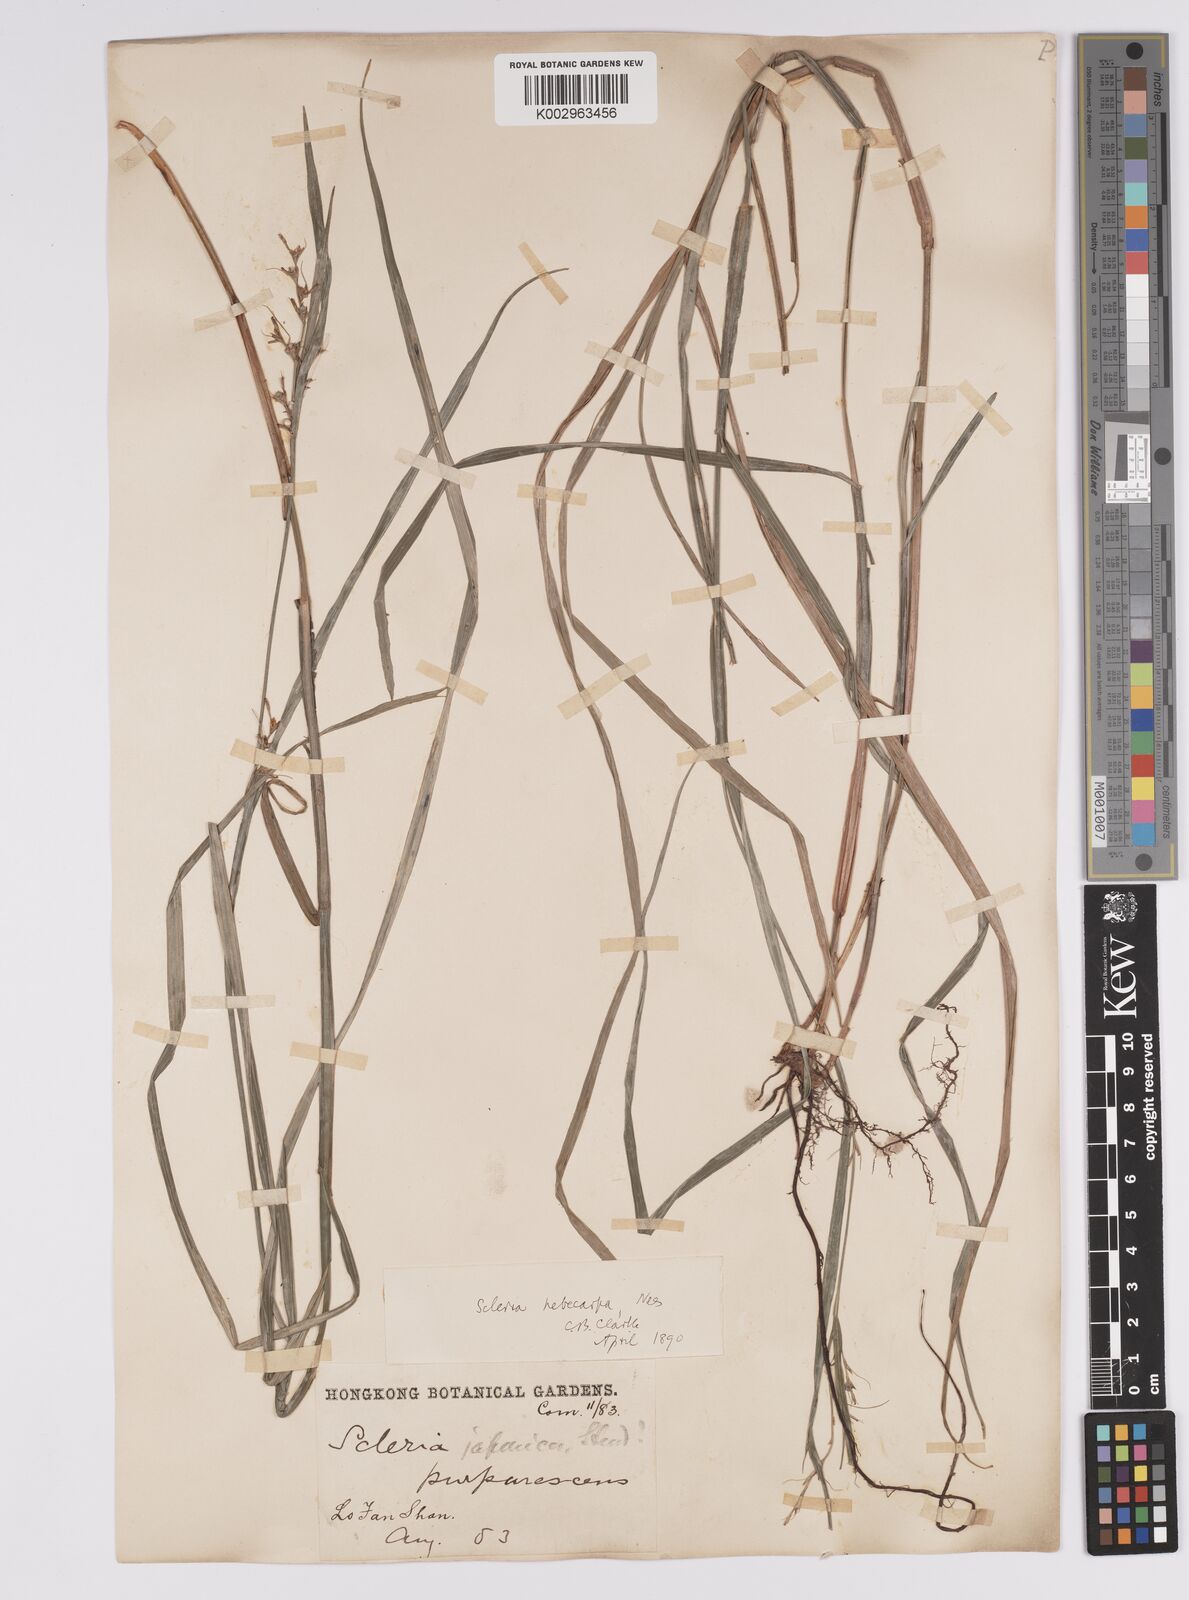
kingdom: Plantae
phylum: Tracheophyta
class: Liliopsida
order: Poales
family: Cyperaceae
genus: Scleria
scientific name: Scleria levis
